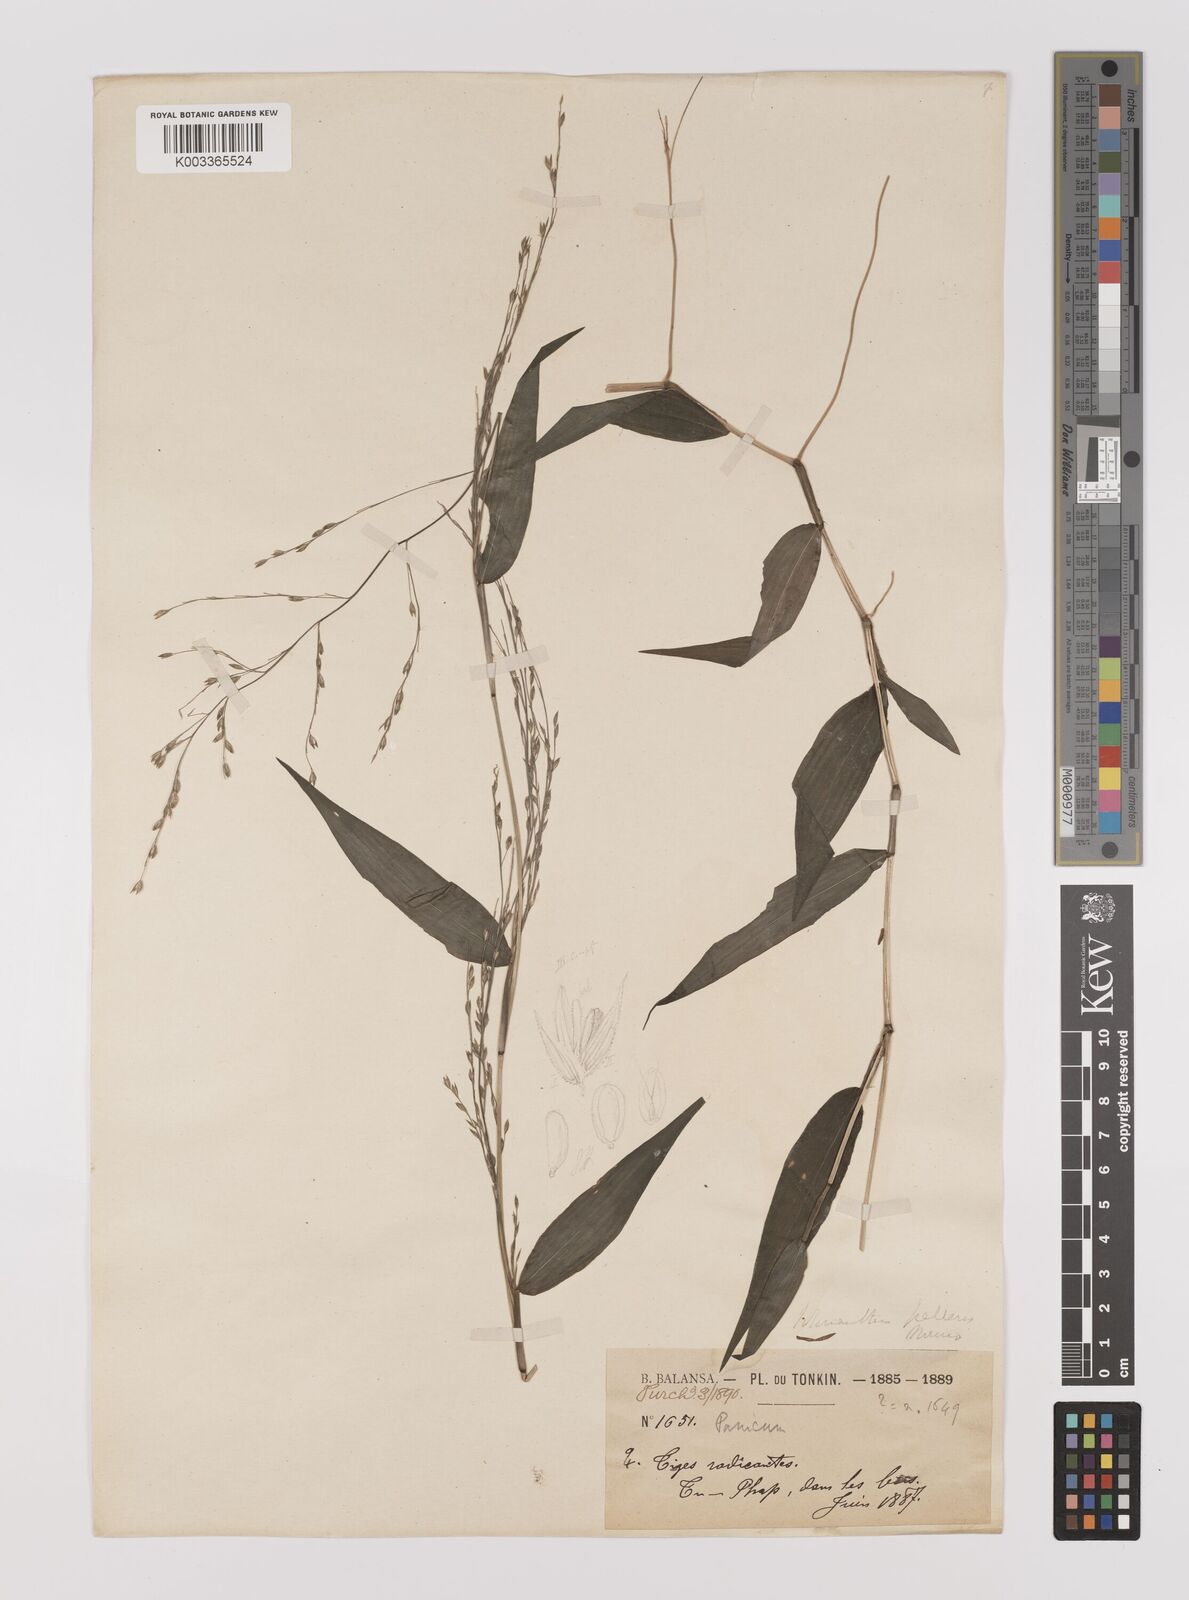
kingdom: Plantae
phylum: Tracheophyta
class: Liliopsida
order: Poales
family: Poaceae
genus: Ichnanthus
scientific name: Ichnanthus pallens
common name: Water grass
